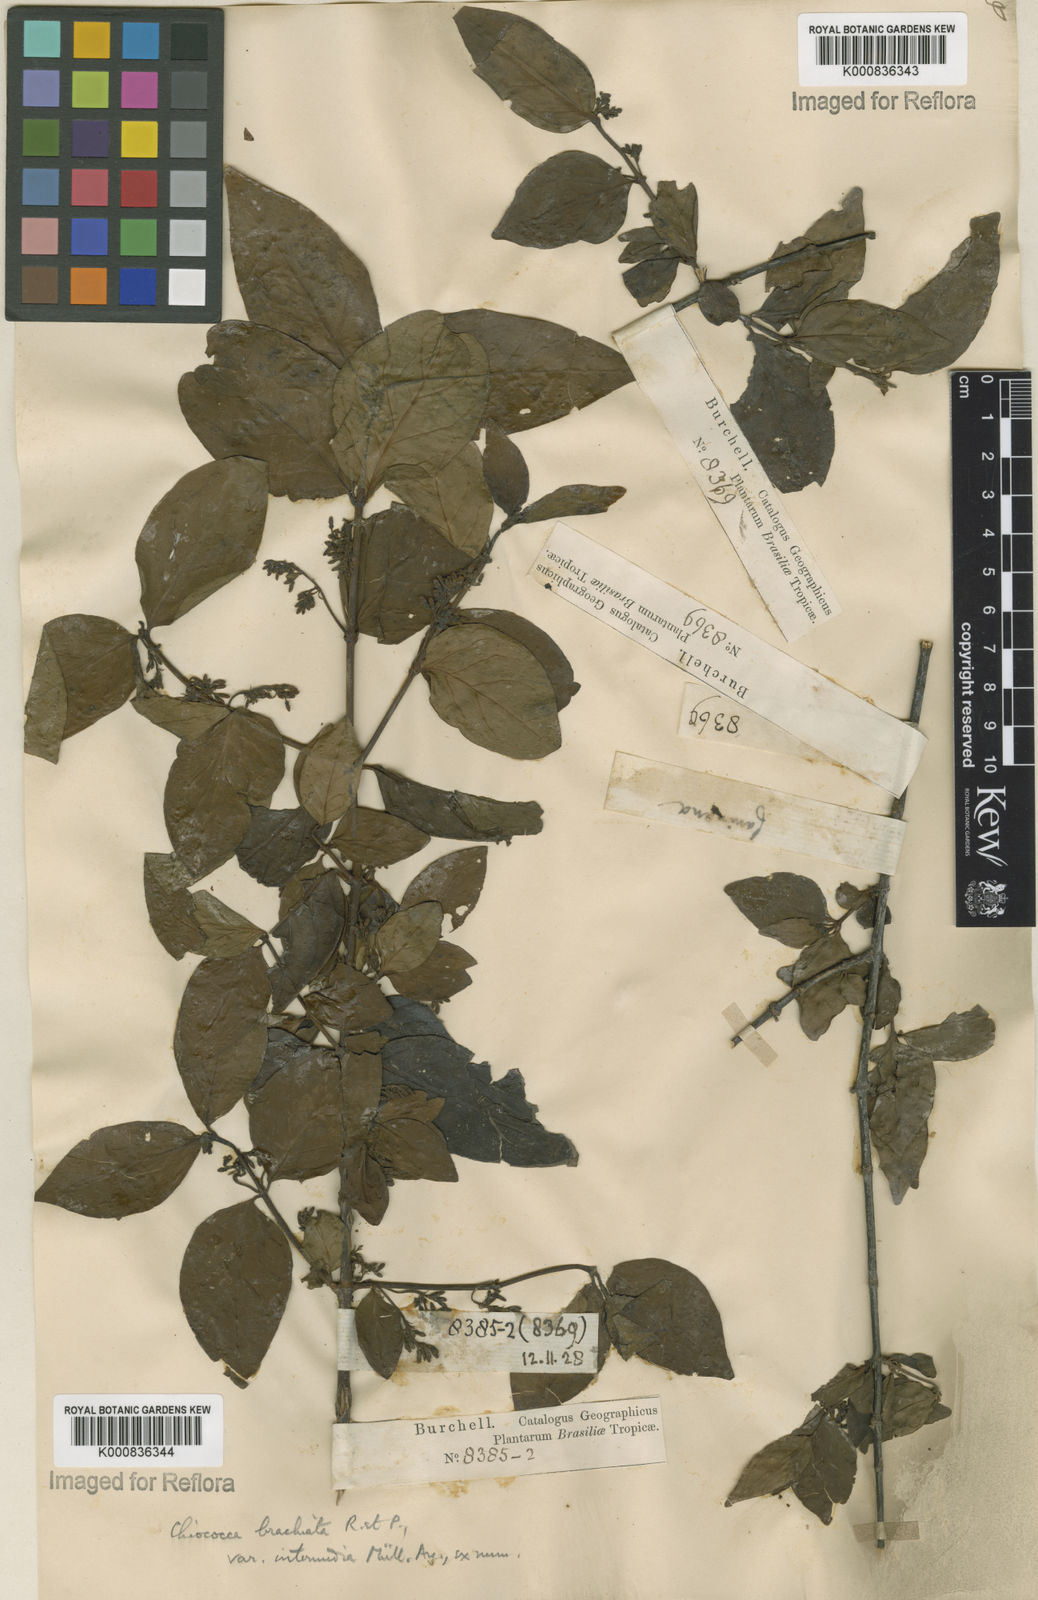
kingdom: Plantae
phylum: Tracheophyta
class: Magnoliopsida
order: Gentianales
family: Rubiaceae
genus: Chiococca
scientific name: Chiococca alba
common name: Snowberry
